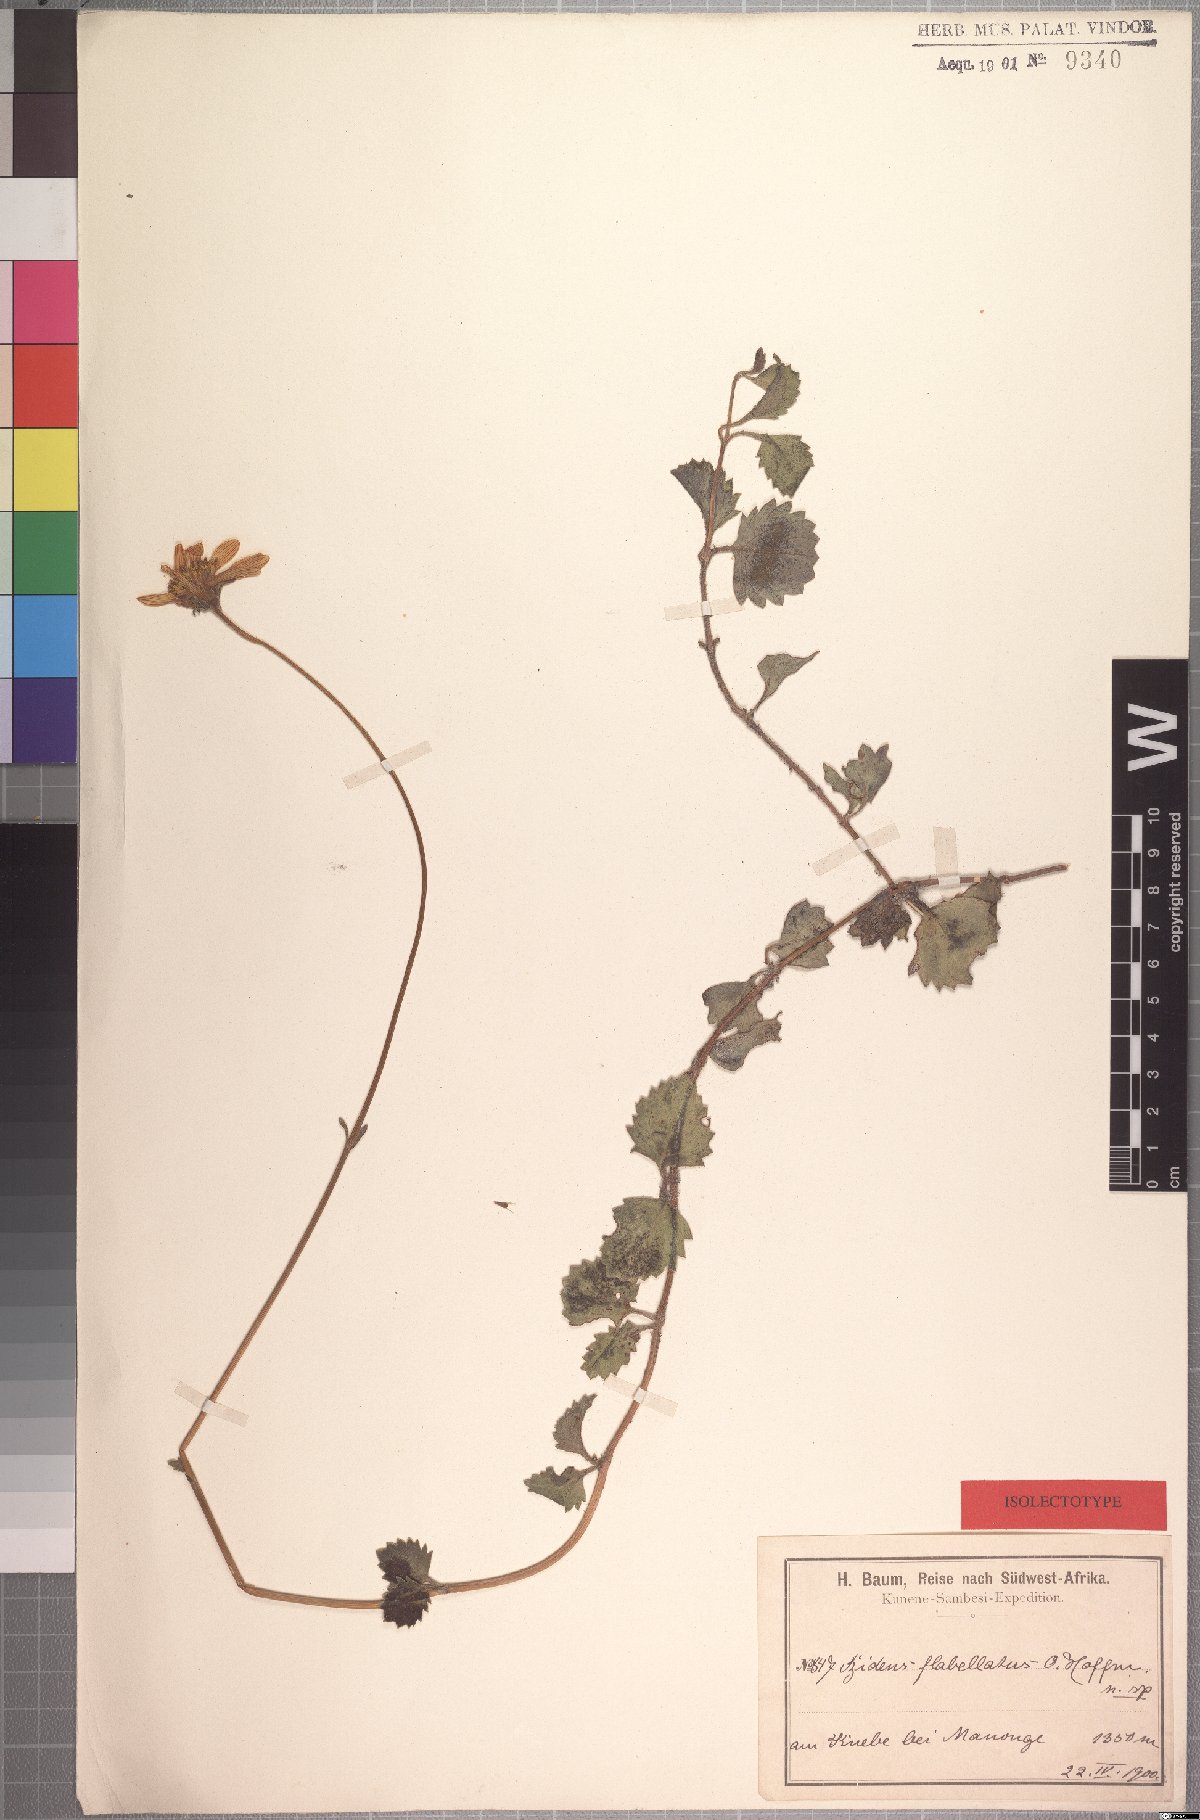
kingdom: Plantae
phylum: Tracheophyta
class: Magnoliopsida
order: Asterales
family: Asteraceae
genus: Bidens
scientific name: Bidens flabellata
